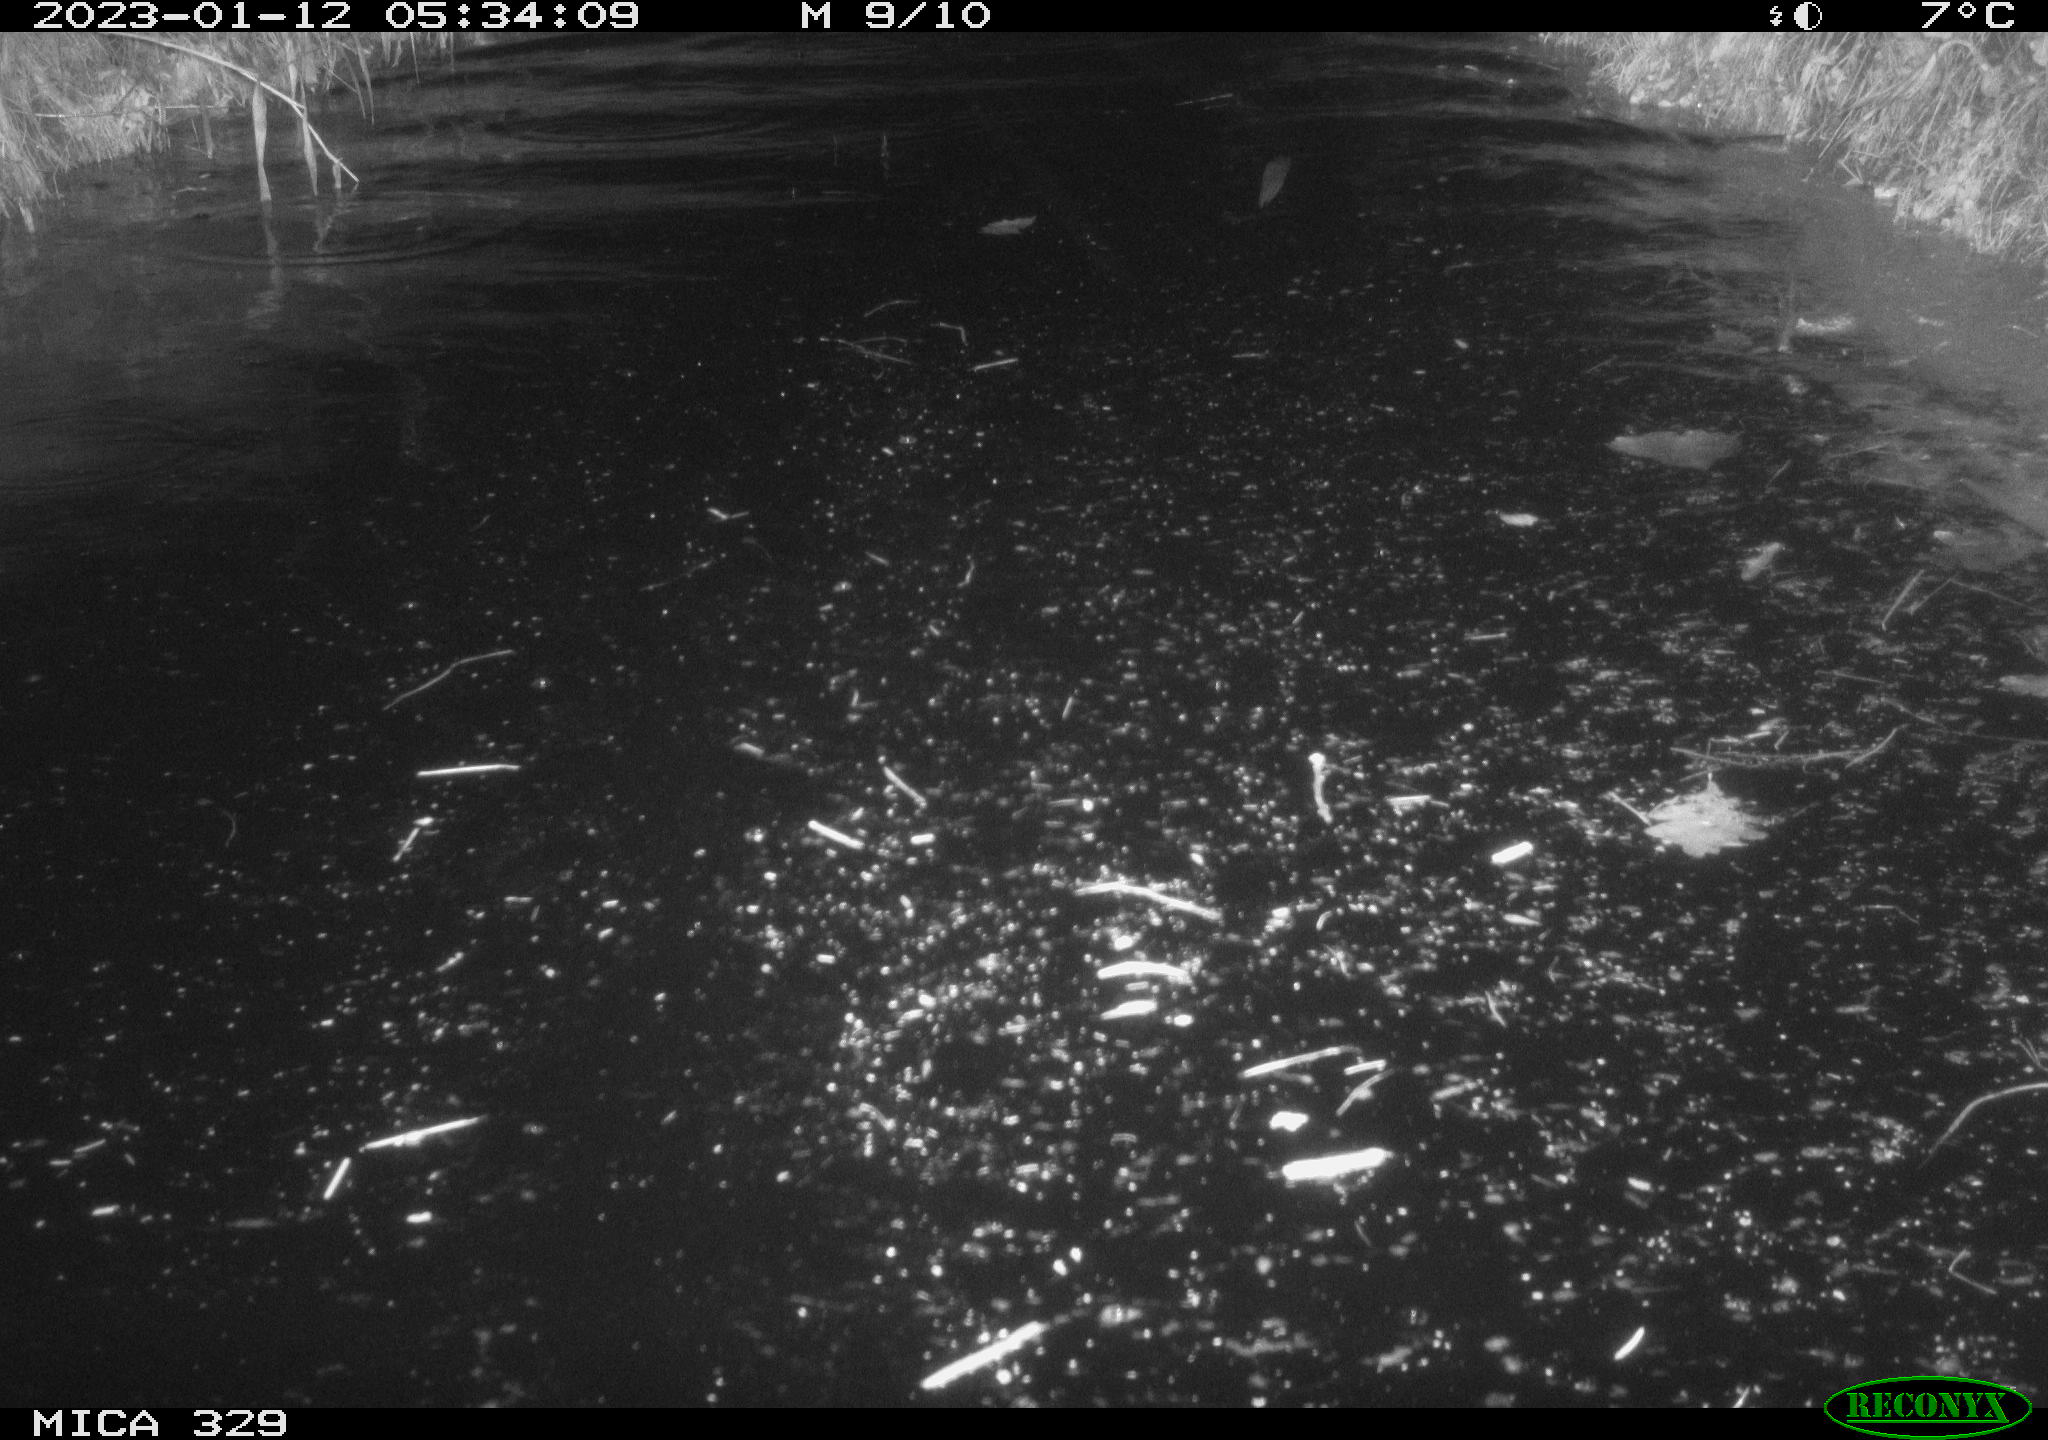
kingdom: Animalia
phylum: Chordata
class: Mammalia
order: Rodentia
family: Cricetidae
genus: Ondatra
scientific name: Ondatra zibethicus
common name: Muskrat
